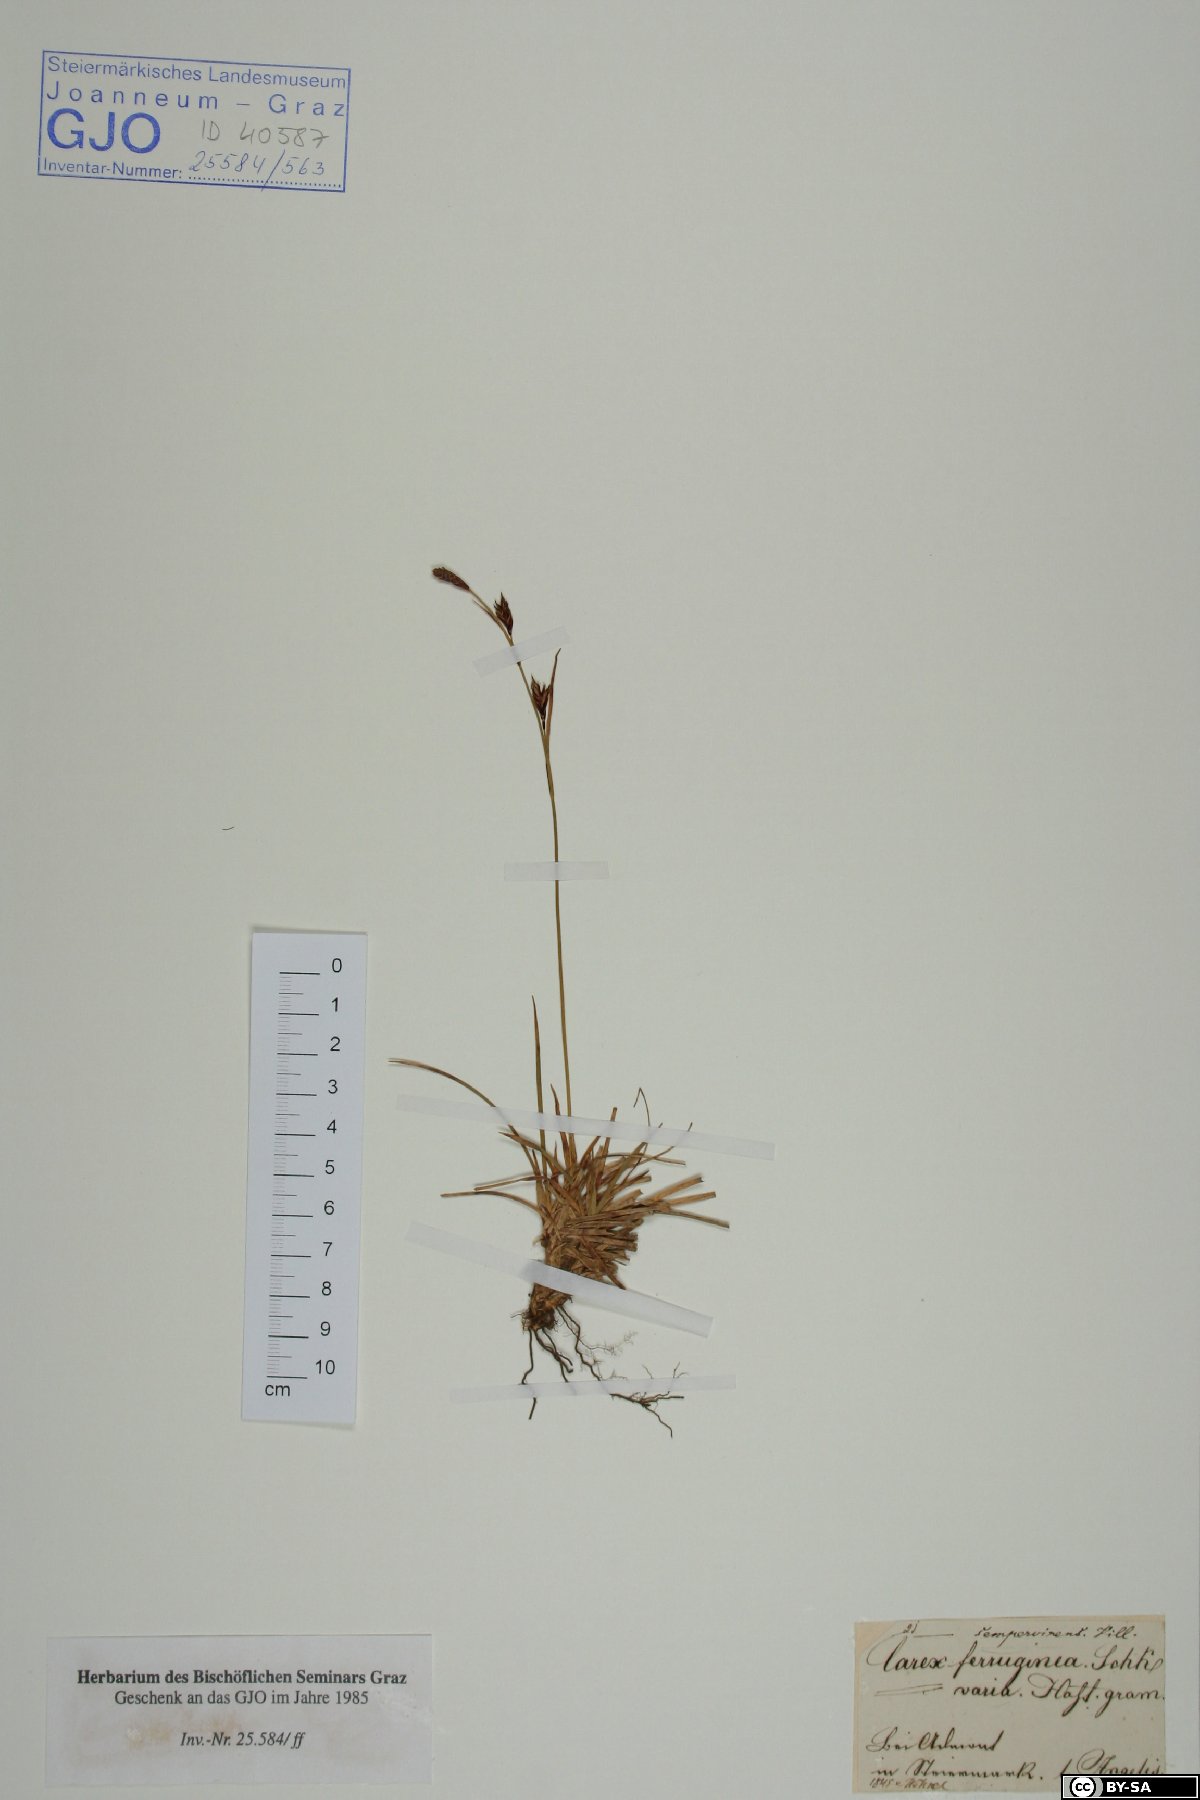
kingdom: Plantae
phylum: Tracheophyta
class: Liliopsida
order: Poales
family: Cyperaceae
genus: Carex
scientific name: Carex ferruginea
